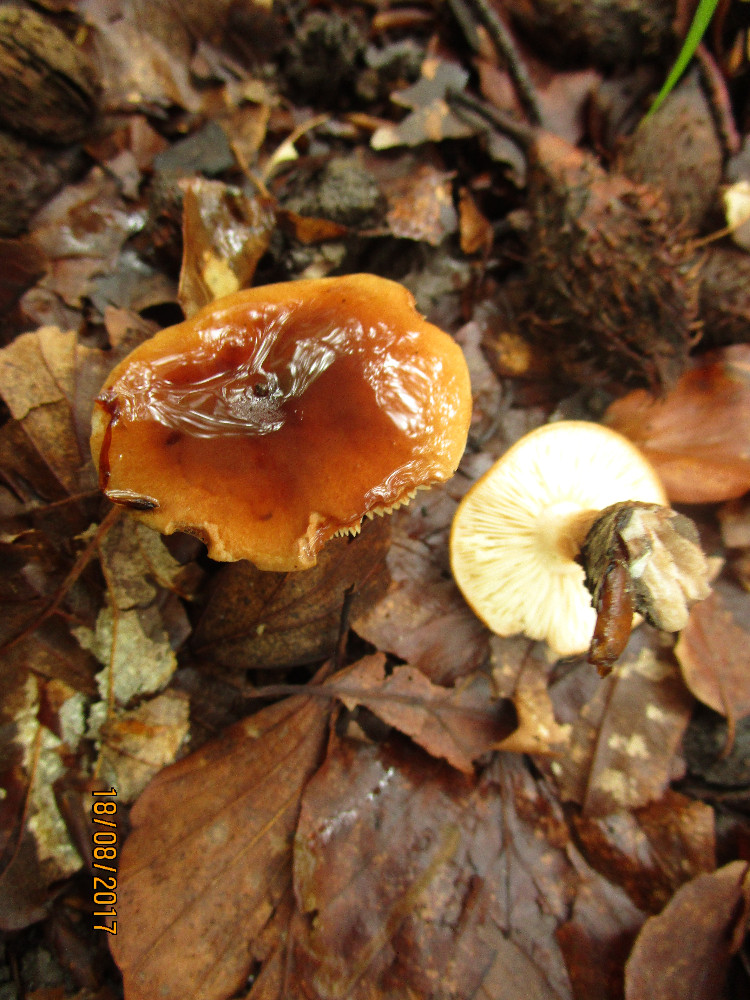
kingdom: Fungi
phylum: Basidiomycota
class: Agaricomycetes
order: Agaricales
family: Tricholomataceae
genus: Tricholoma
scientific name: Tricholoma ustale
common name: sveden ridderhat
